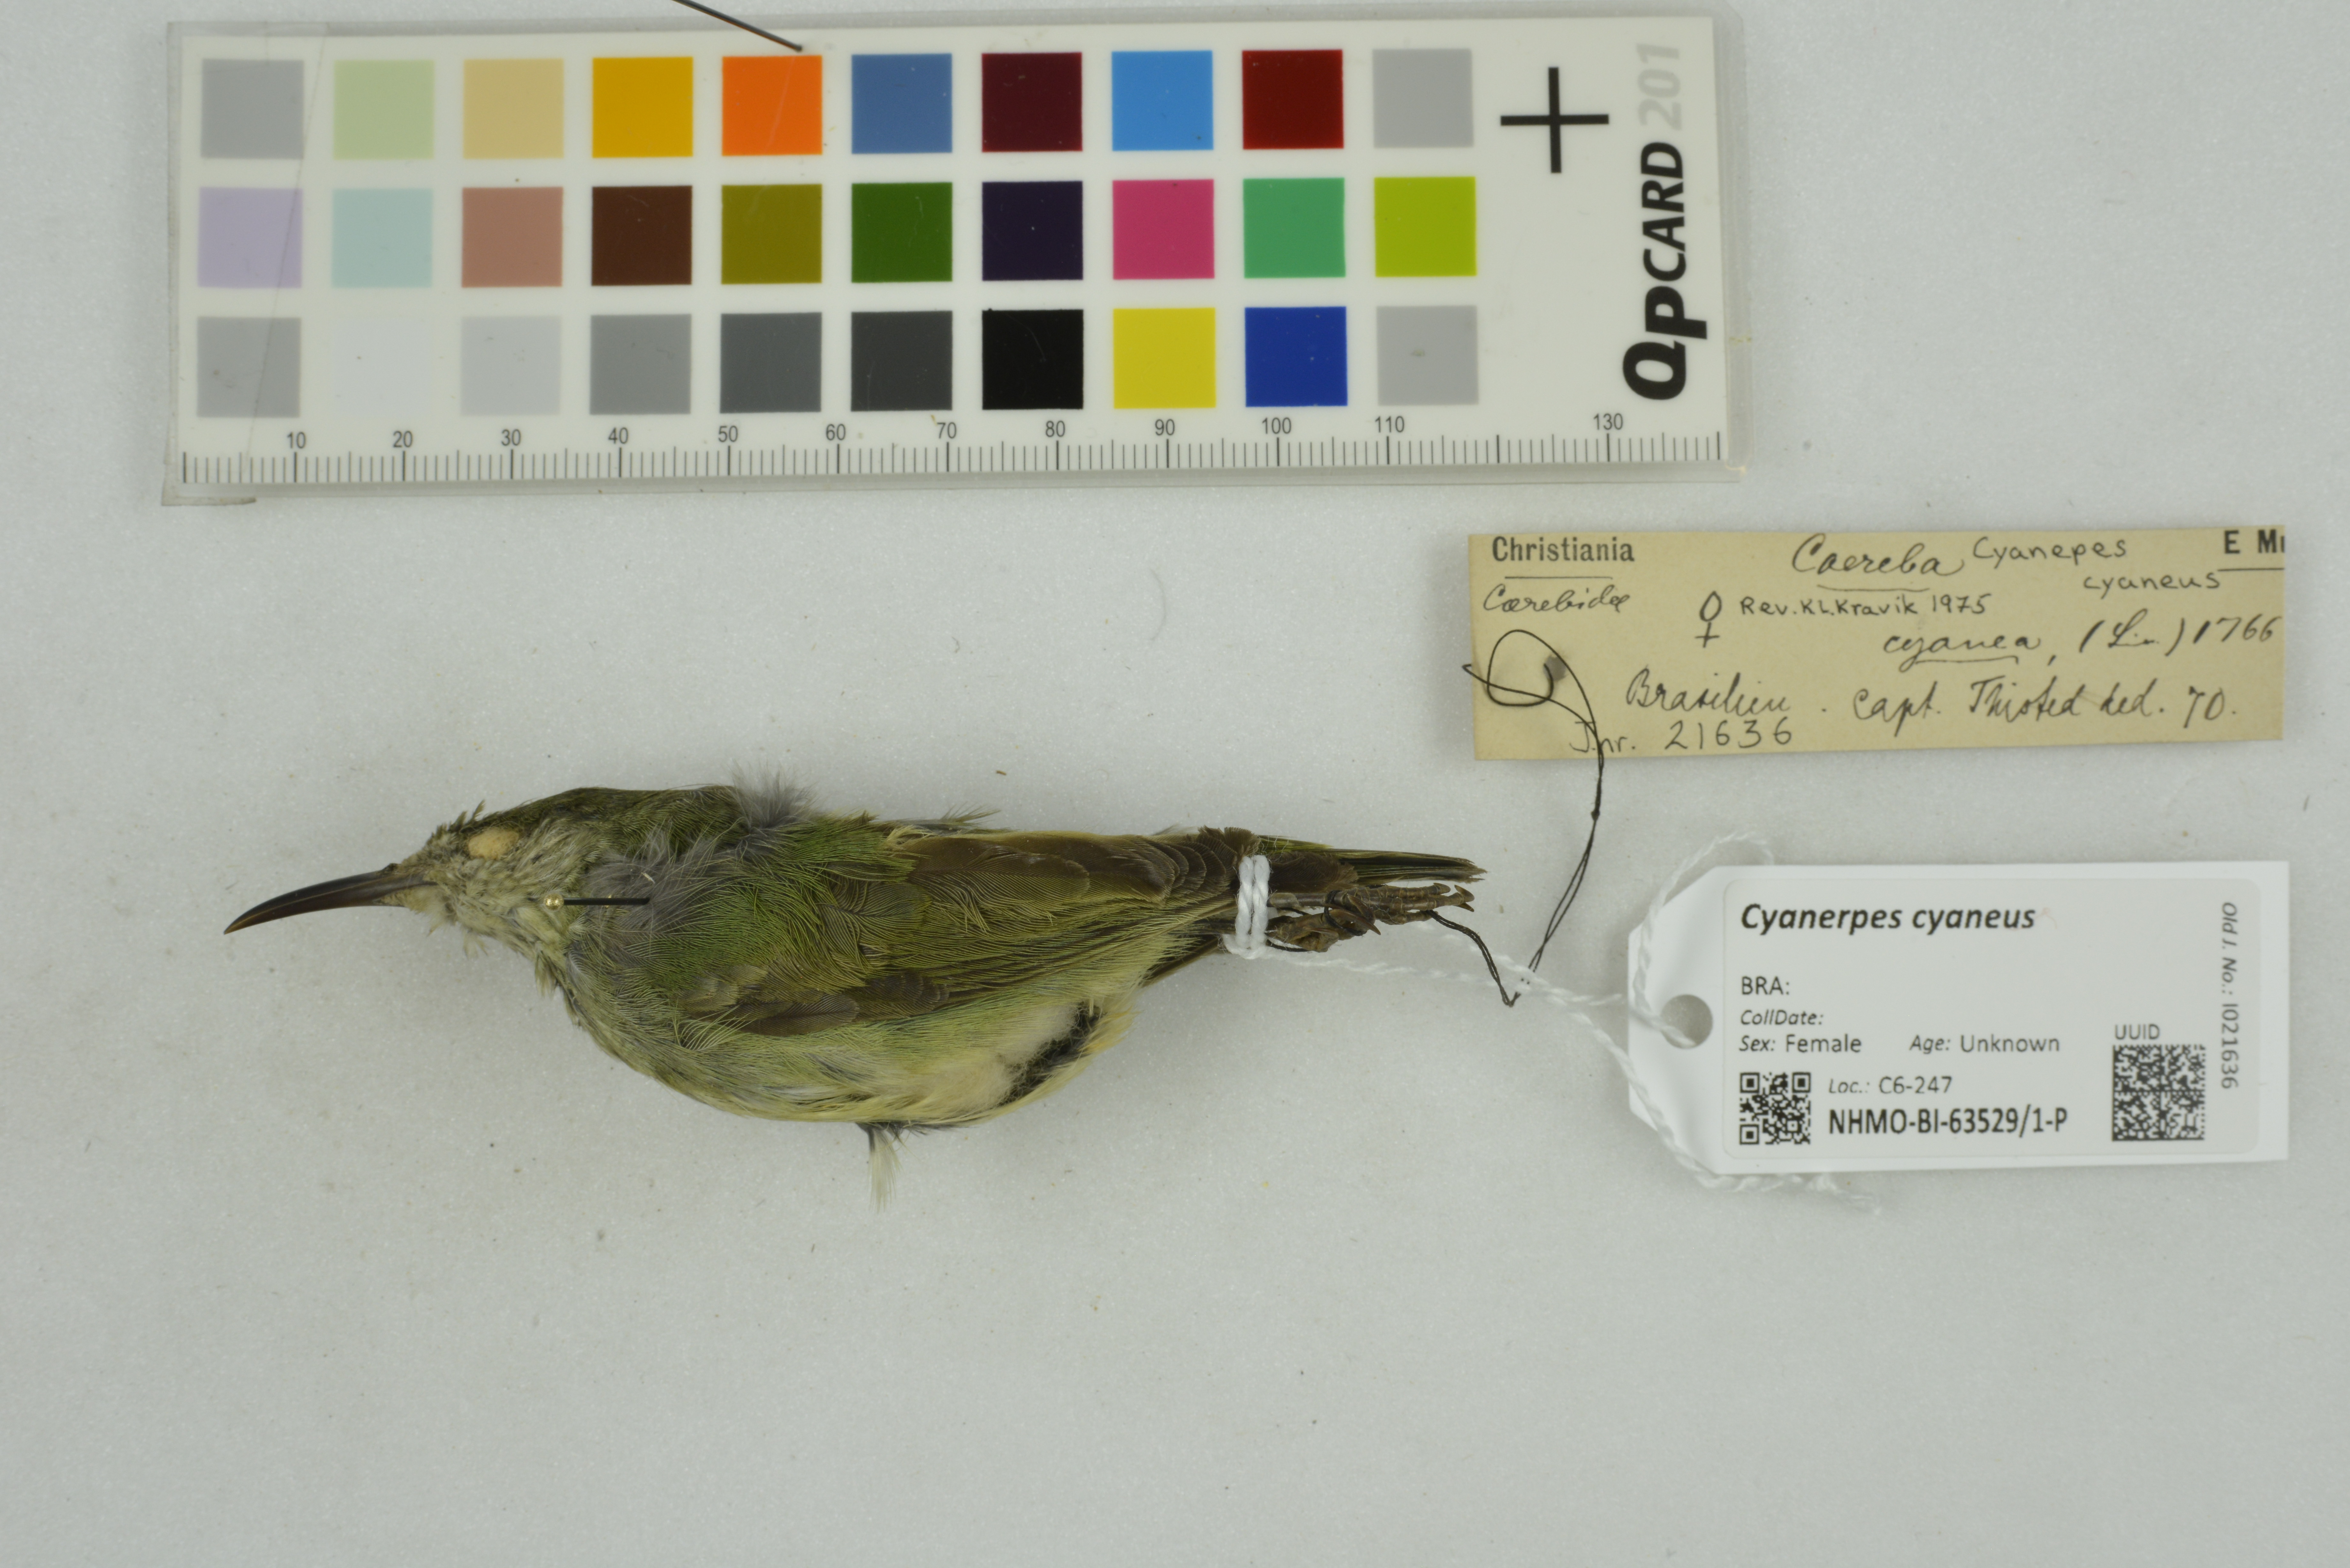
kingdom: Animalia
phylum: Chordata
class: Aves
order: Passeriformes
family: Thraupidae
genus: Cyanerpes
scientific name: Cyanerpes cyaneus
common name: Red-legged honeycreeper
